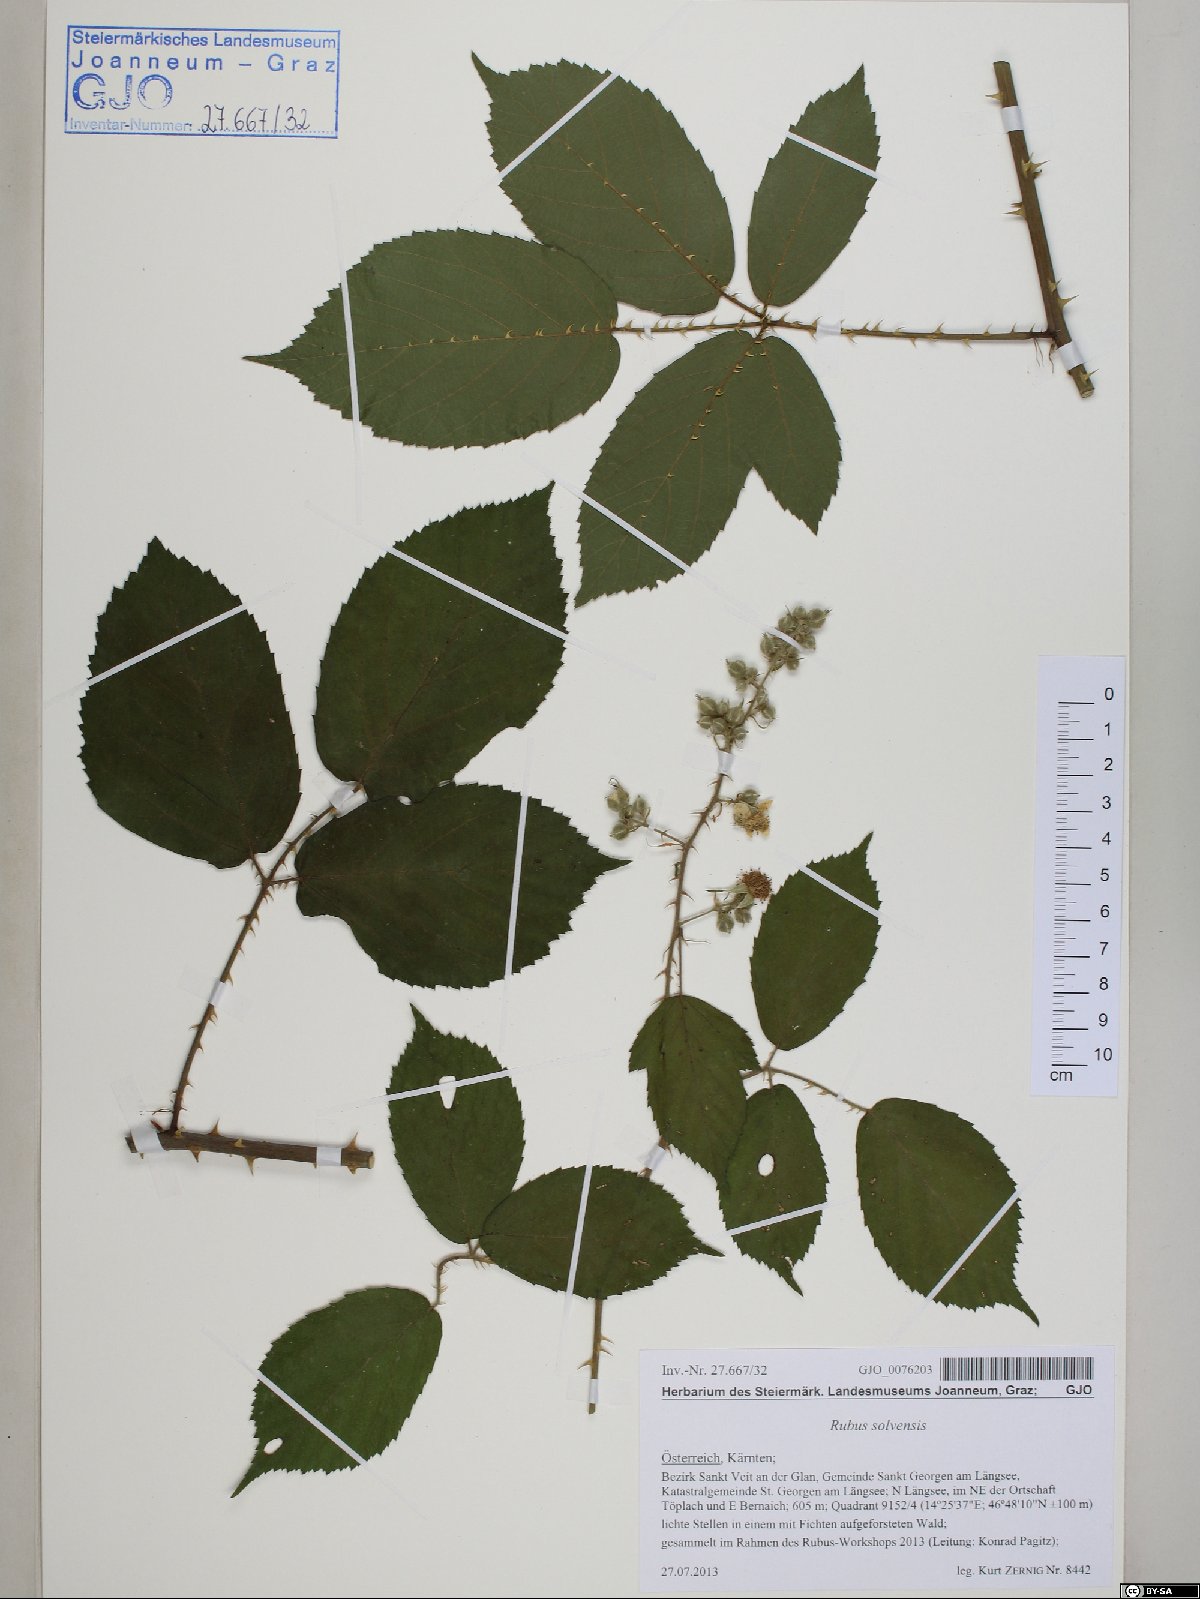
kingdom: Plantae
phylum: Tracheophyta
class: Magnoliopsida
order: Rosales
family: Rosaceae
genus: Rubus
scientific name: Rubus solvensis
